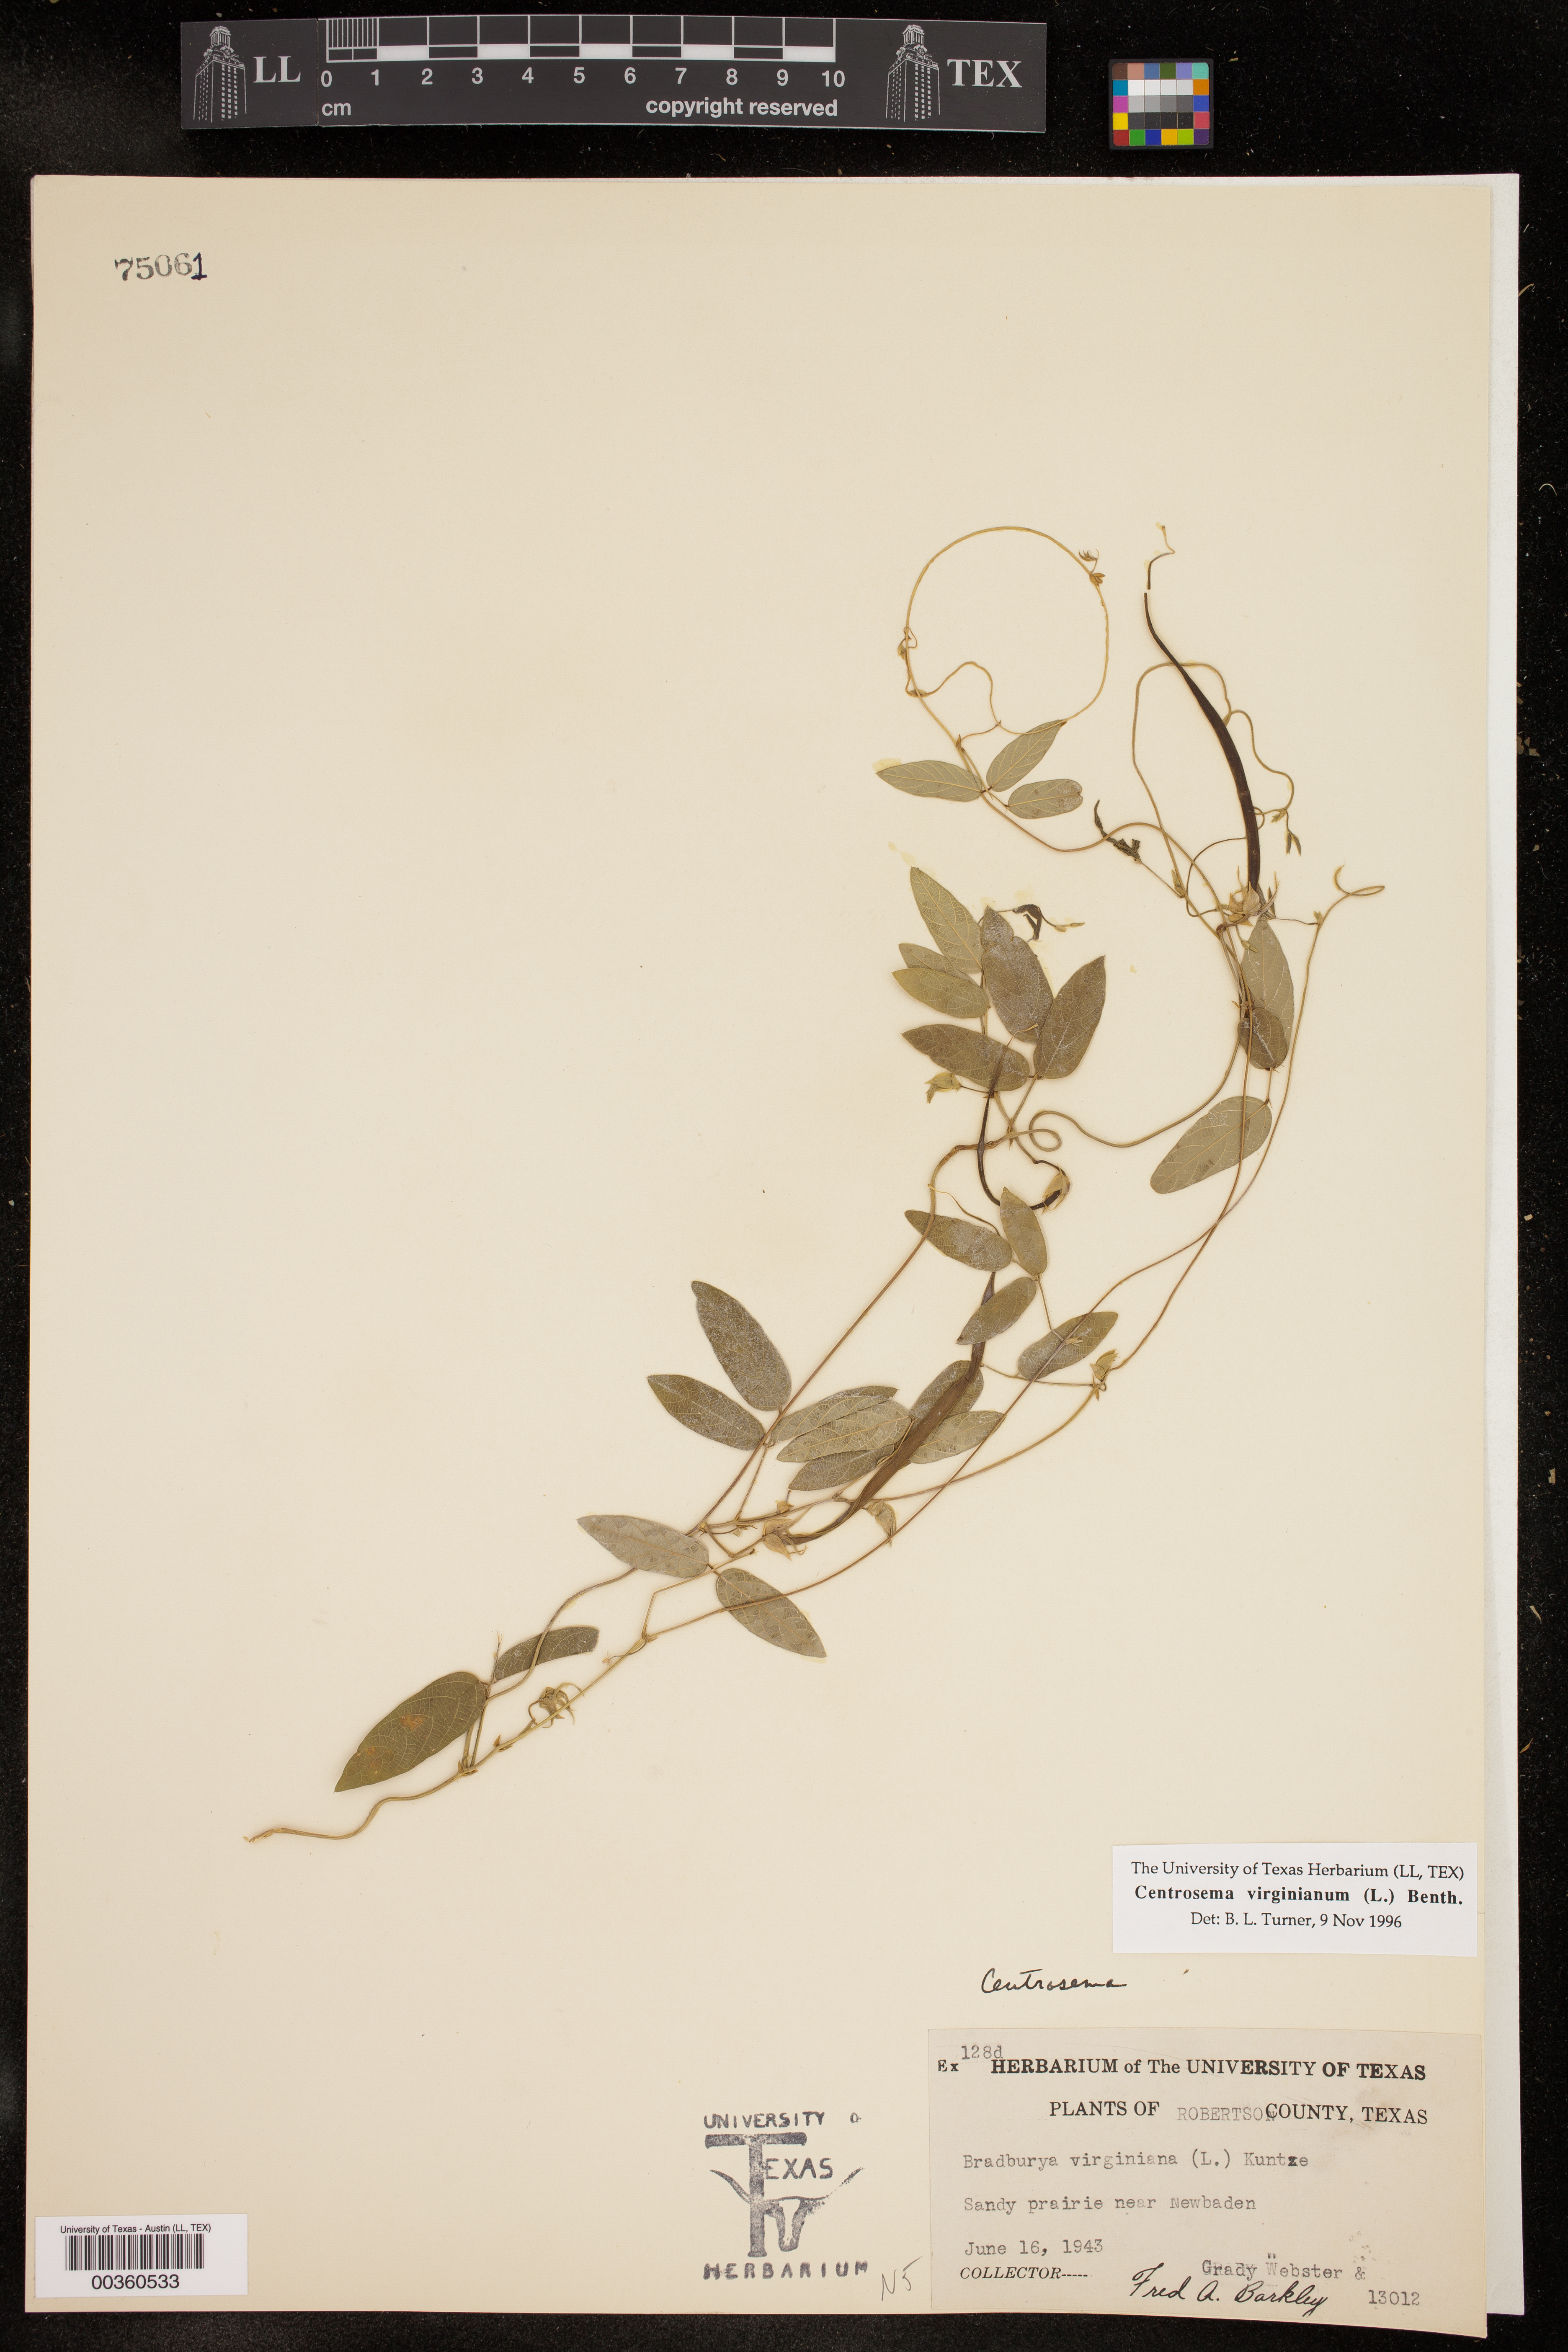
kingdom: Plantae
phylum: Tracheophyta
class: Magnoliopsida
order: Fabales
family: Fabaceae
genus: Centrosema
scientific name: Centrosema virginianum
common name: Butterfly-pea
